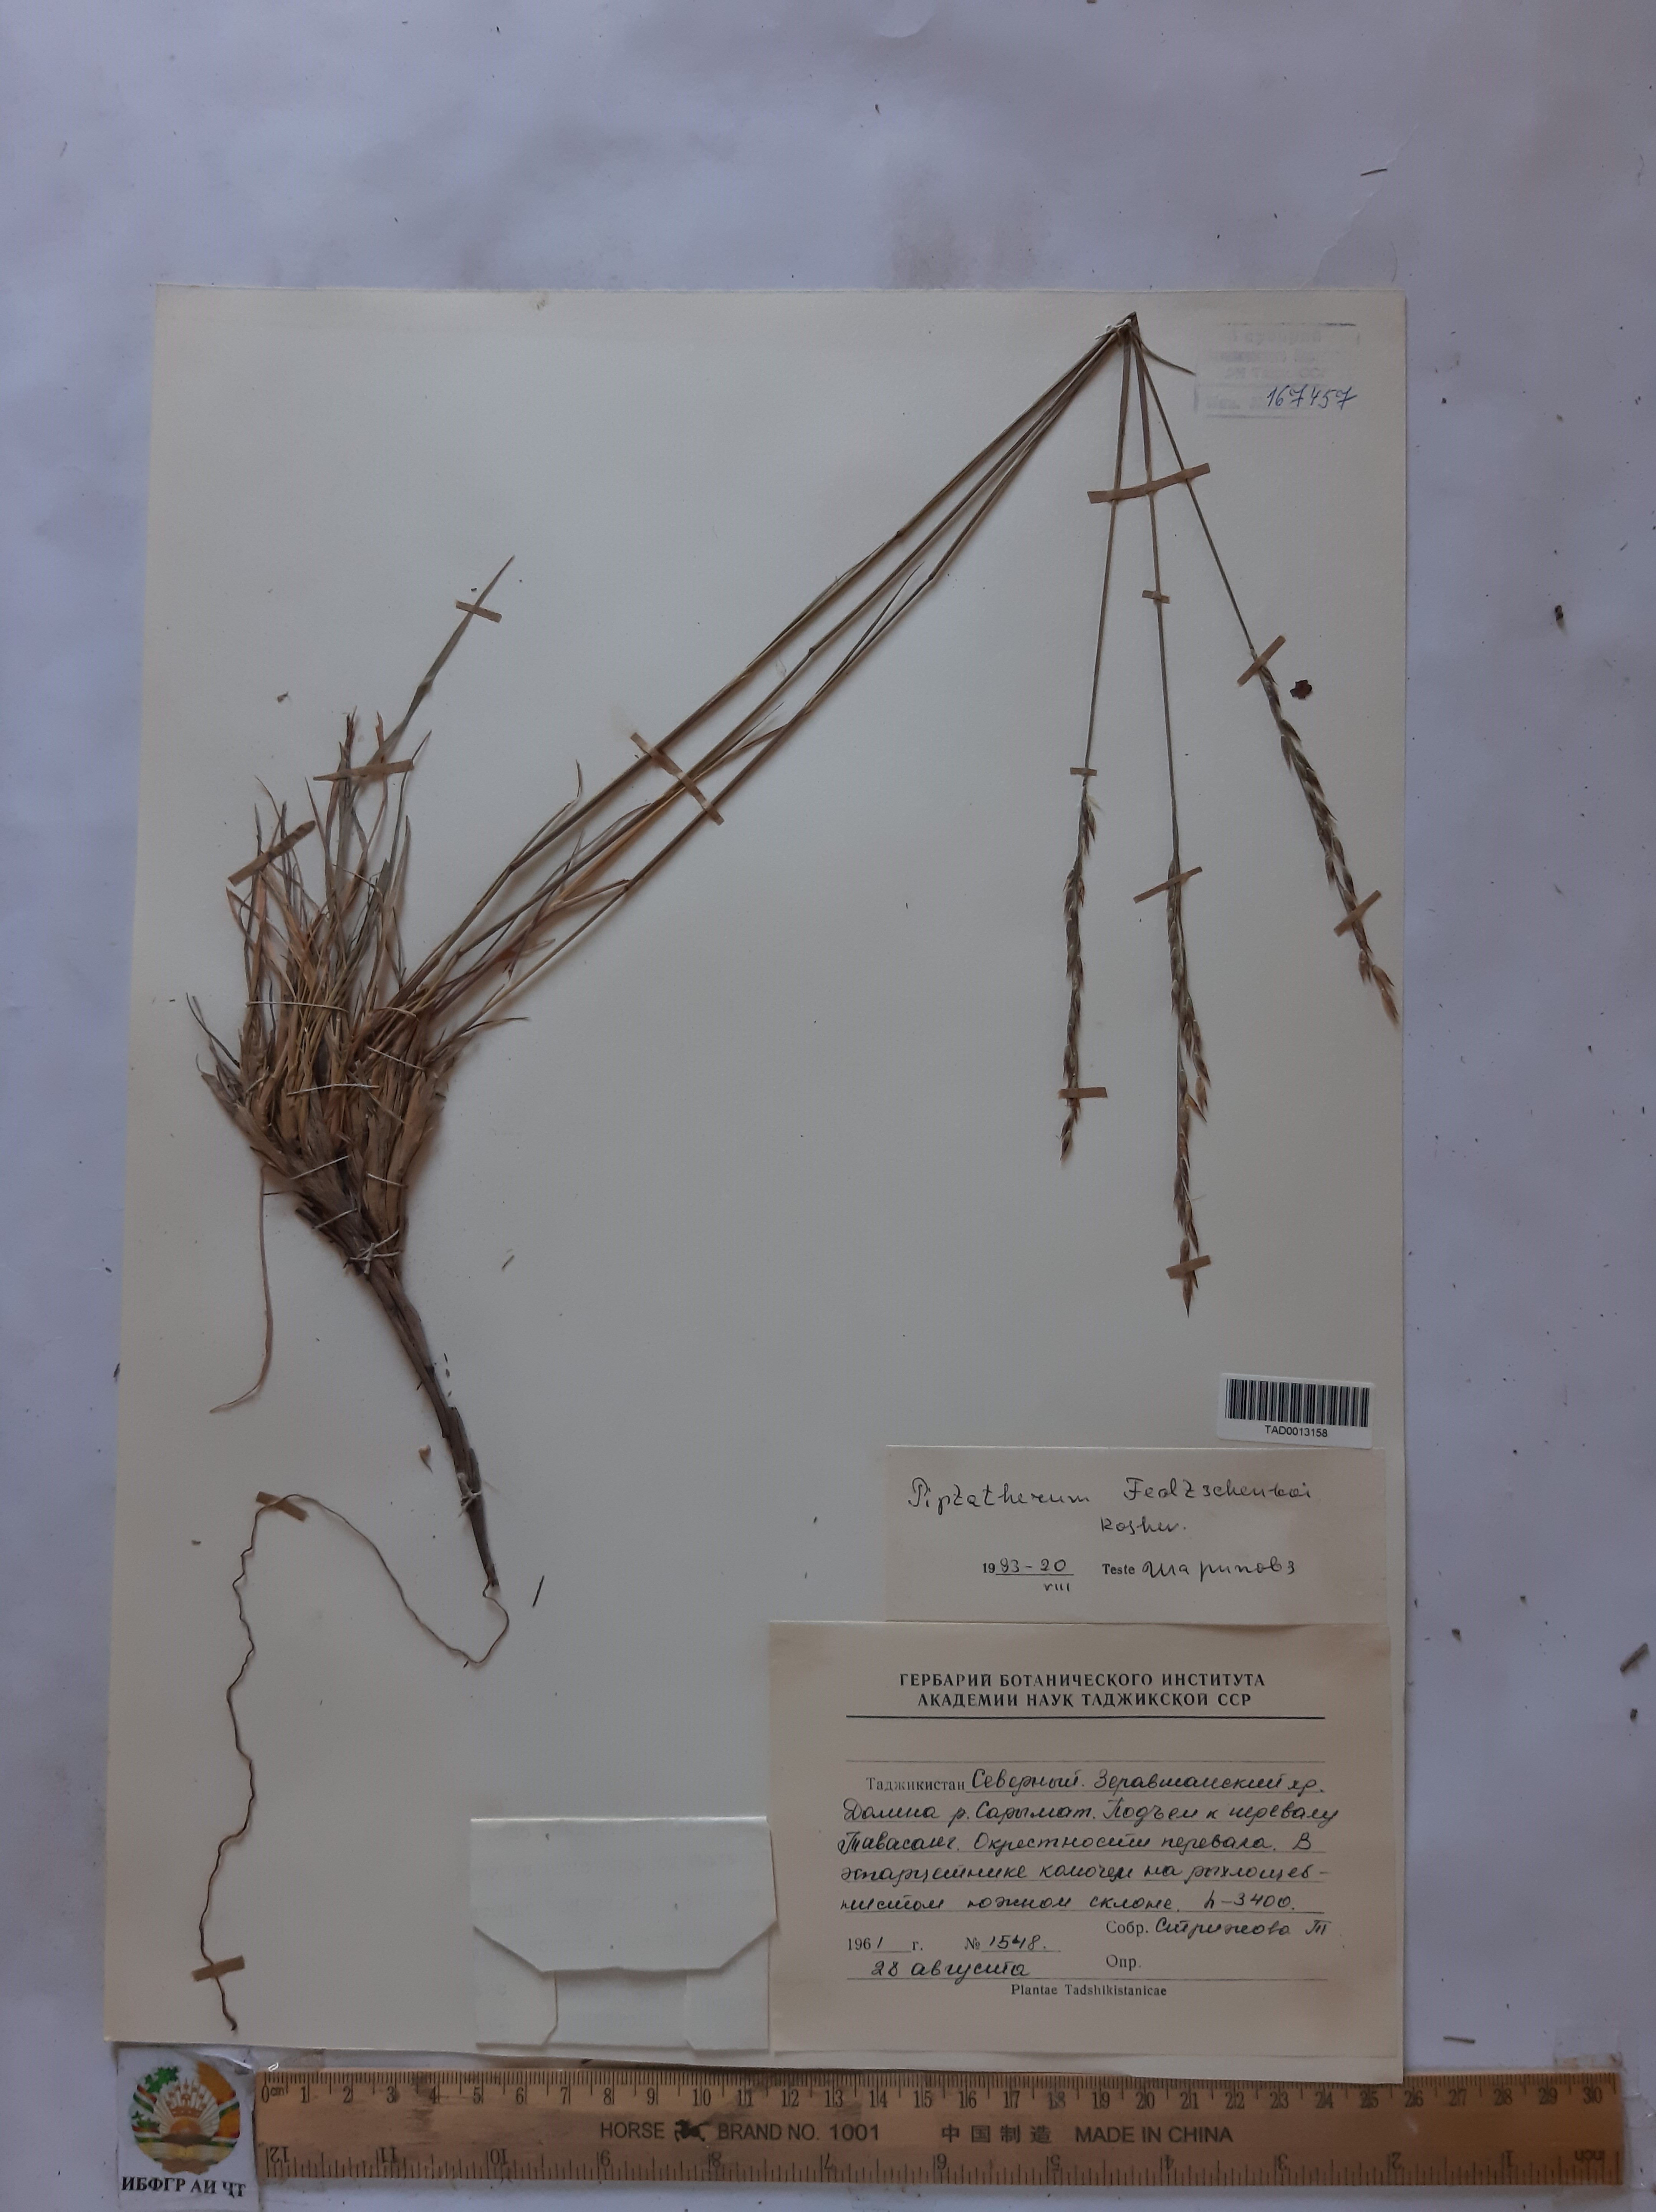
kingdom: Plantae
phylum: Tracheophyta
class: Liliopsida
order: Poales
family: Poaceae
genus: Piptatherum
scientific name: Piptatherum sogdianum
